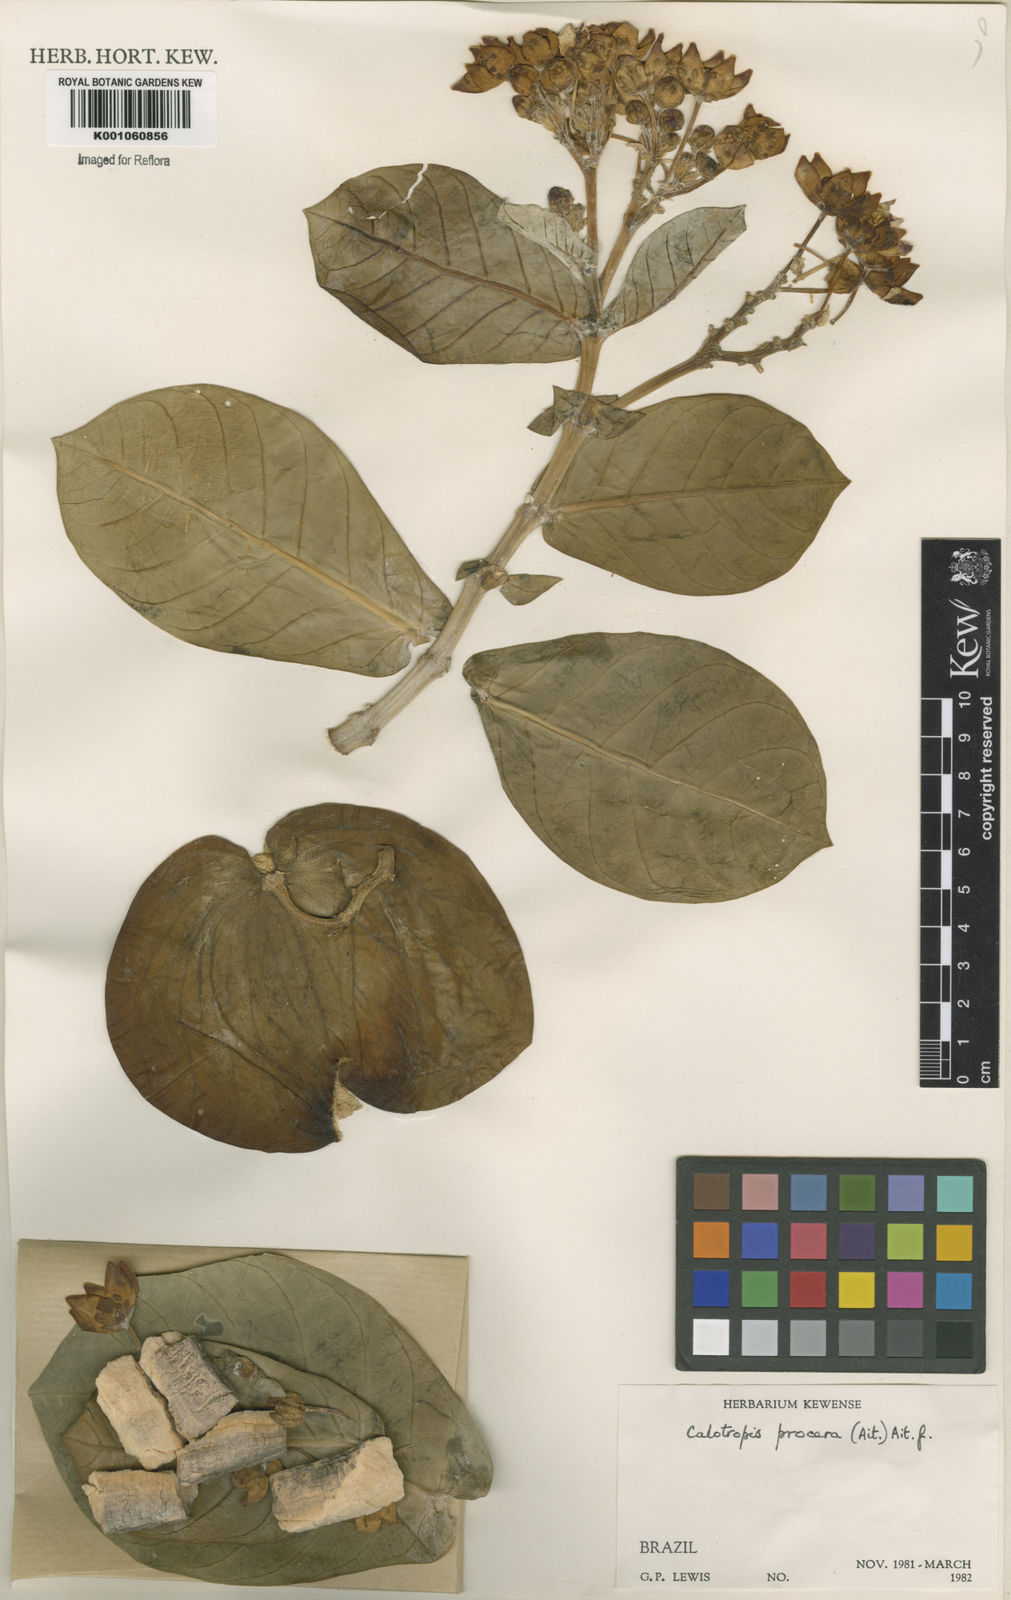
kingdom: Plantae
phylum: Tracheophyta
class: Magnoliopsida
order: Gentianales
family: Apocynaceae
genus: Calotropis
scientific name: Calotropis procera
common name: Roostertree
